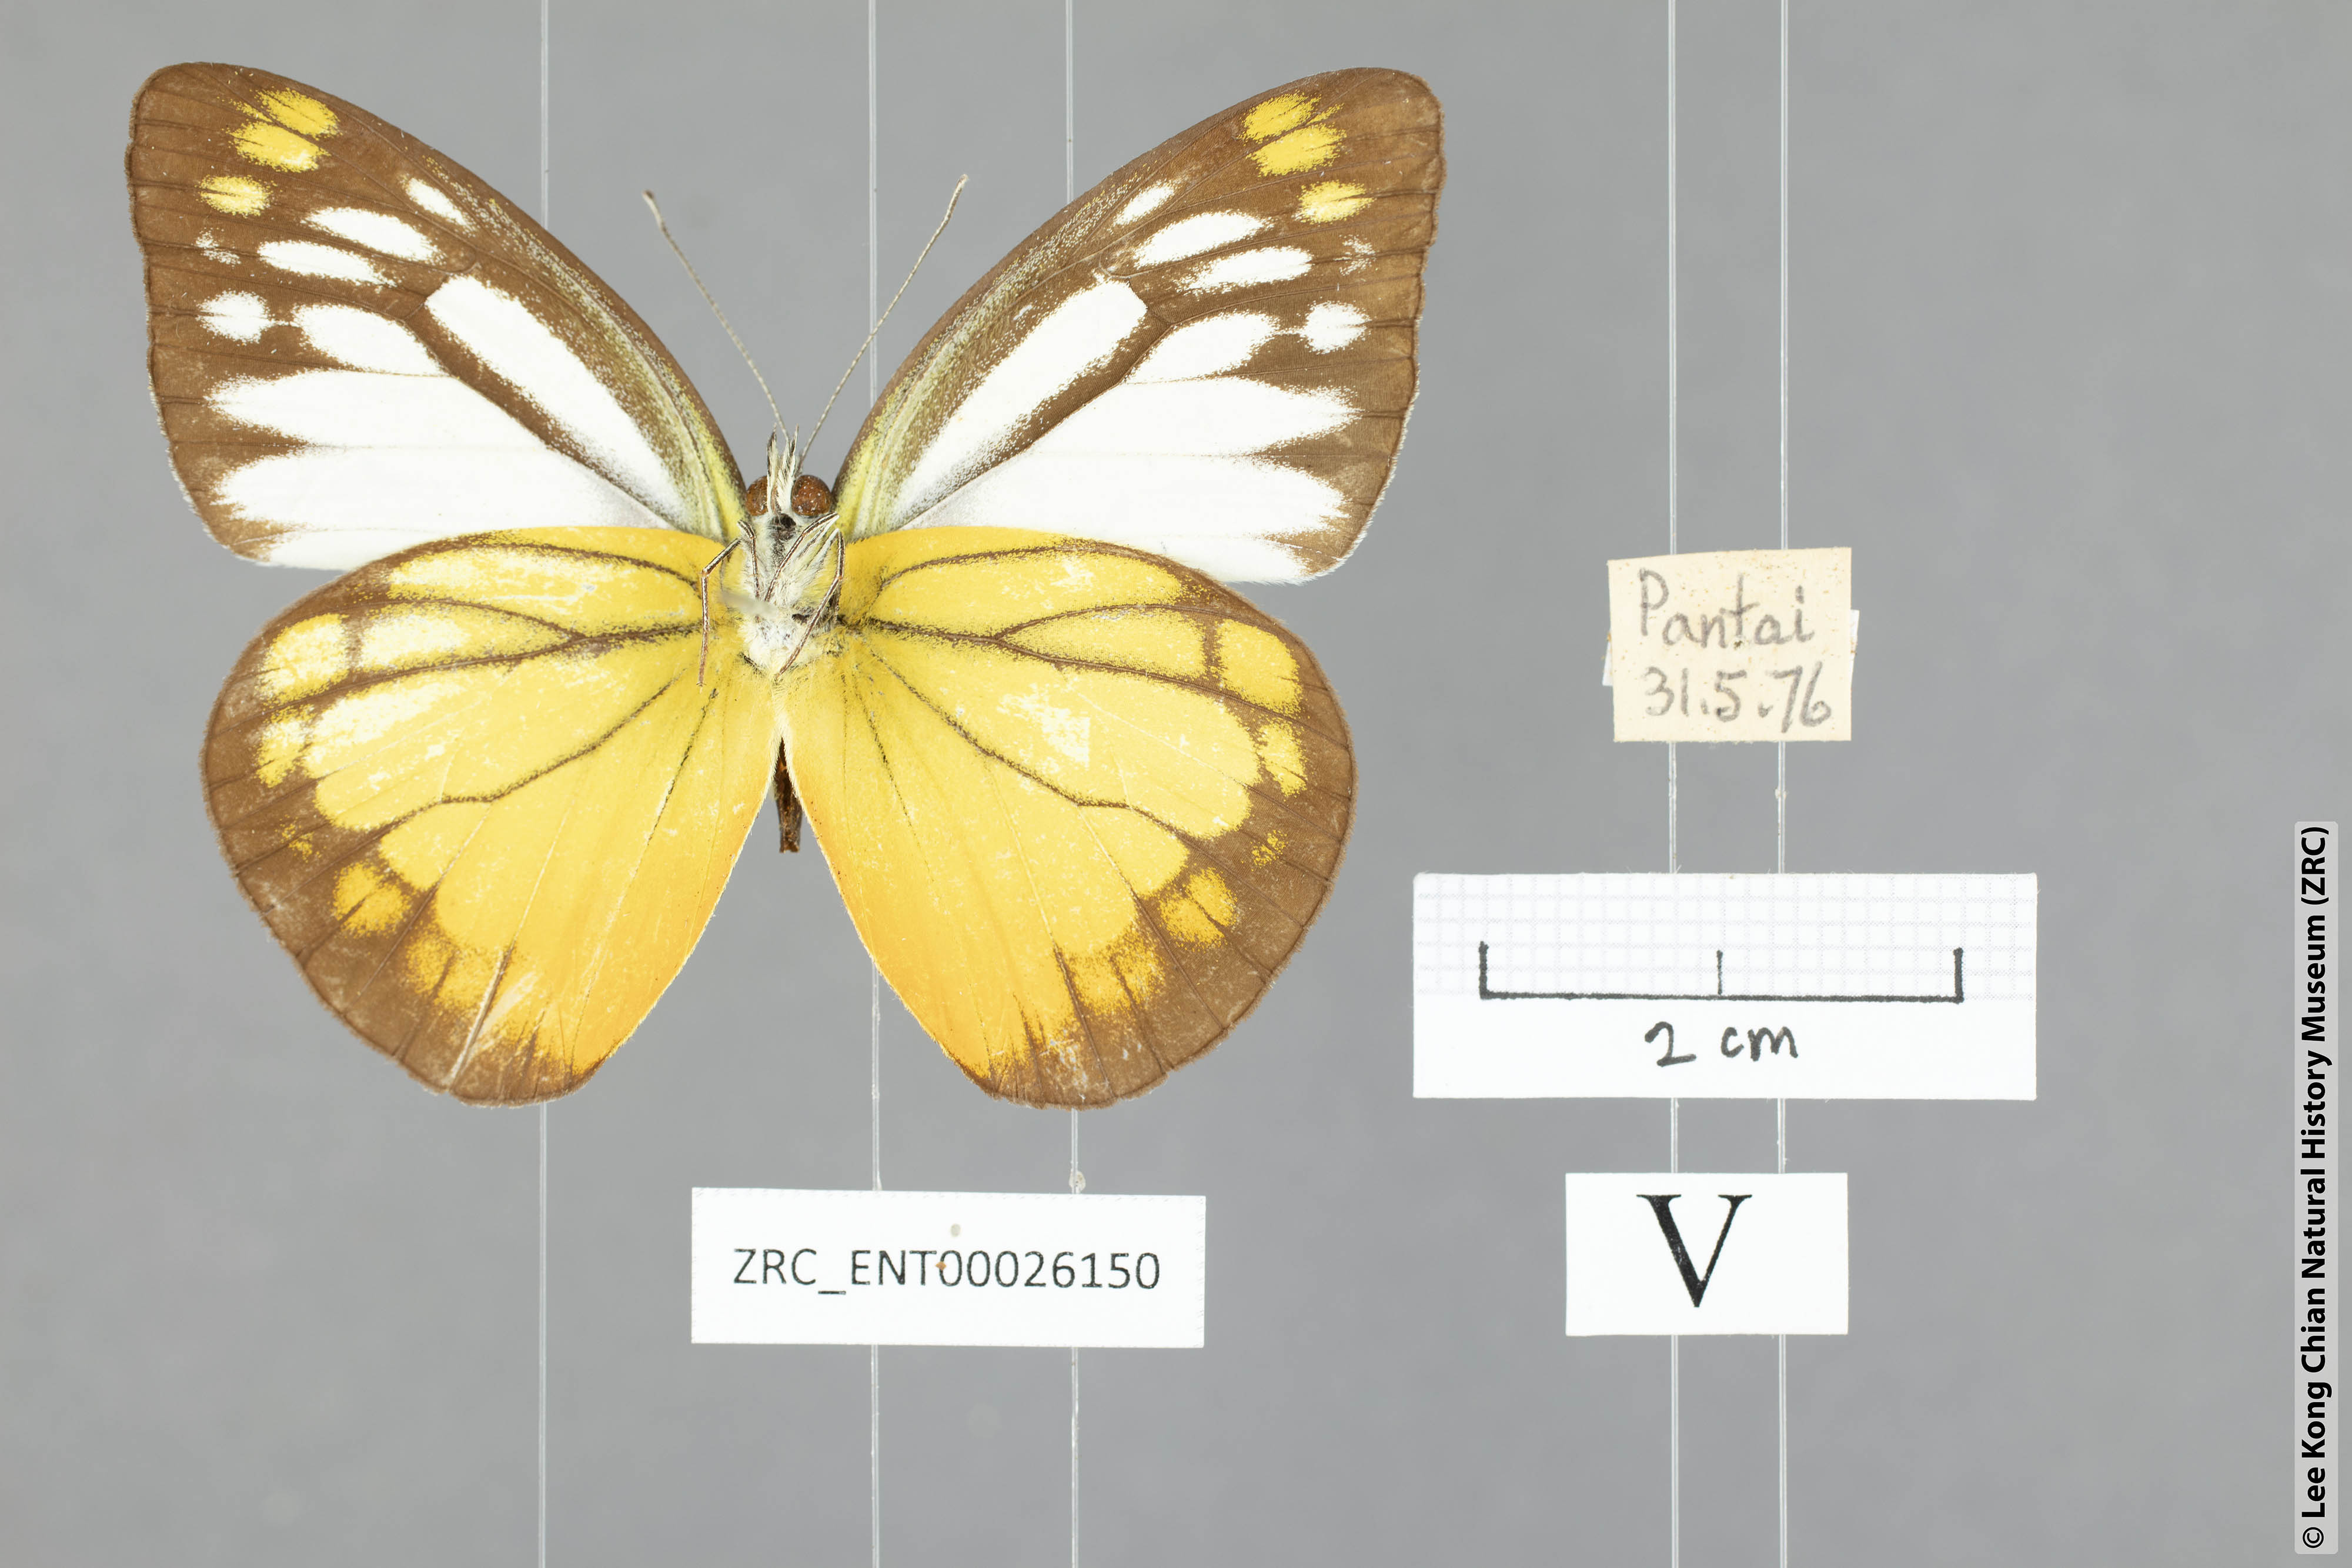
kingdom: Animalia
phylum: Arthropoda
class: Insecta
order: Lepidoptera
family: Pieridae
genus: Cepora
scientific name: Cepora julia
